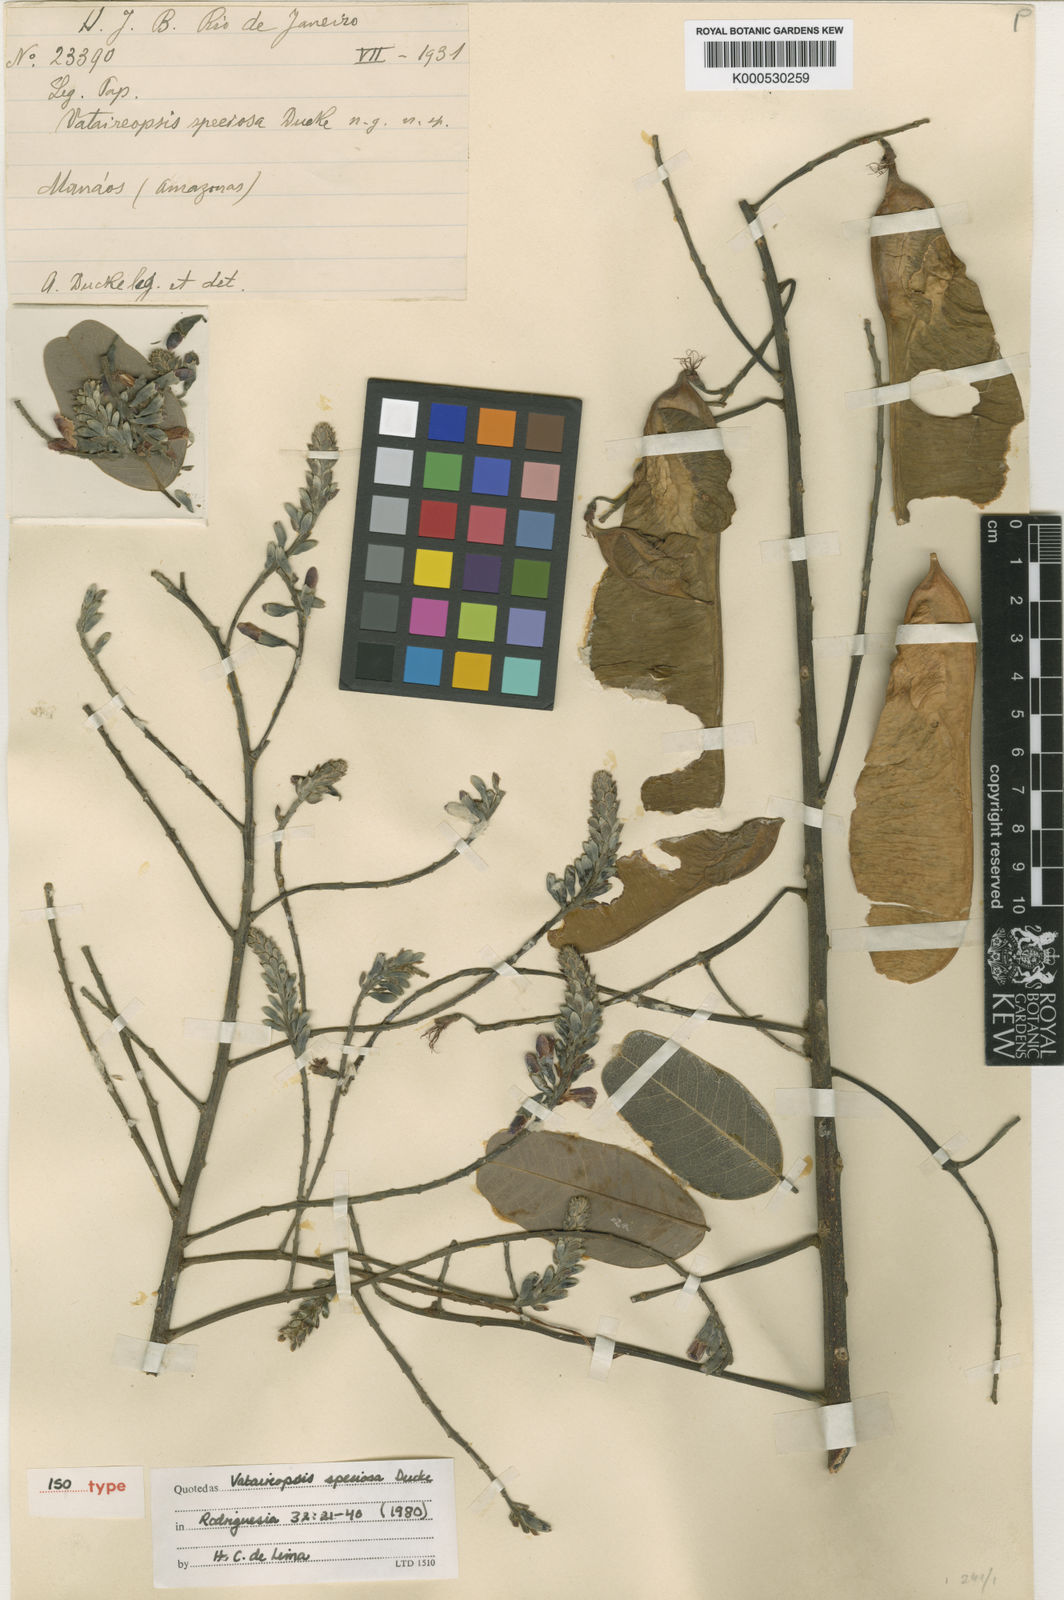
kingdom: Plantae
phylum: Tracheophyta
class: Magnoliopsida
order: Fabales
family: Fabaceae
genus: Vataireopsis
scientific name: Vataireopsis speciosa
